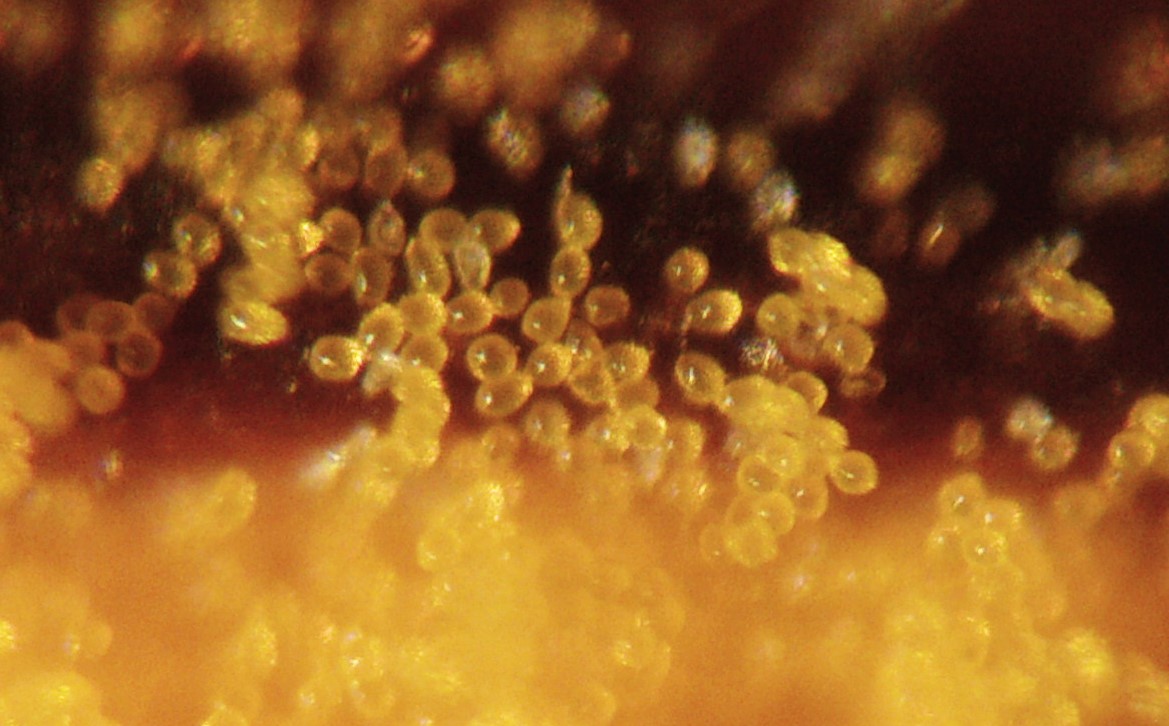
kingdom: Fungi
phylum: Basidiomycota
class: Pucciniomycetes
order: Pucciniales
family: Phragmidiaceae
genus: Kuehneola
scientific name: Kuehneola uredinis
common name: klynger-kædecellerust
